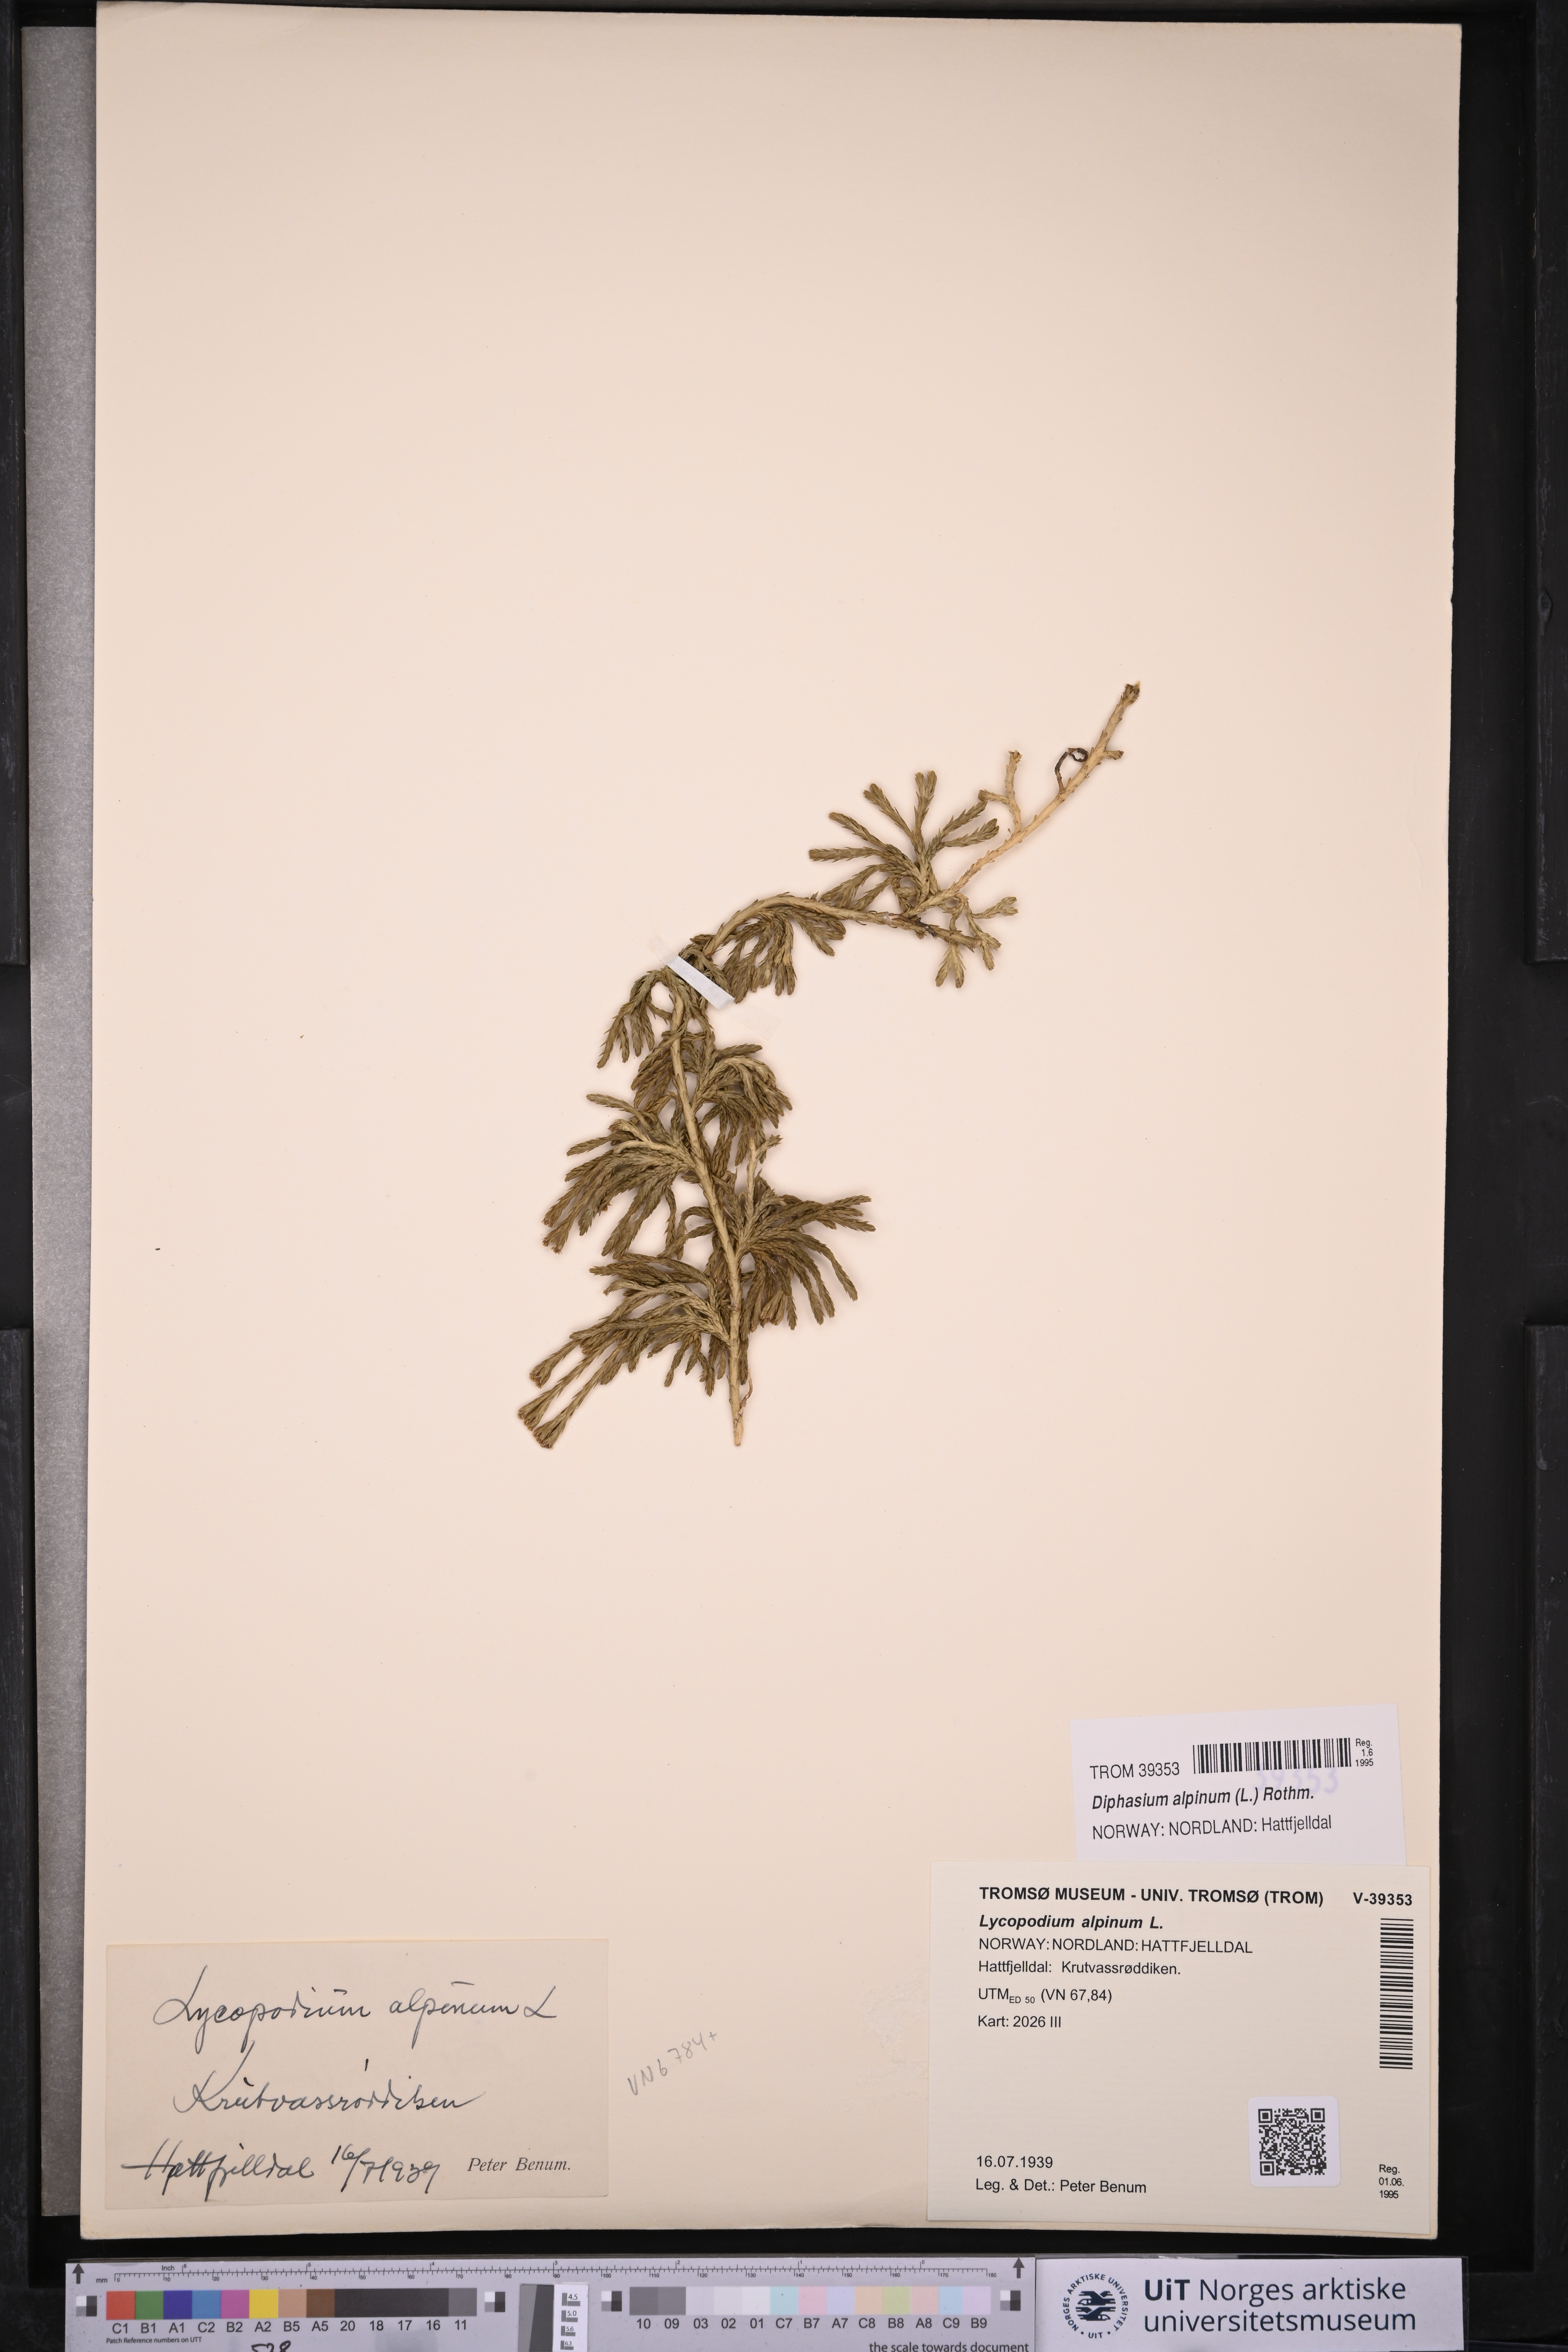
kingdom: Plantae
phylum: Tracheophyta
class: Lycopodiopsida
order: Lycopodiales
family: Lycopodiaceae
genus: Diphasiastrum
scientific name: Diphasiastrum alpinum
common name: Alpine clubmoss
